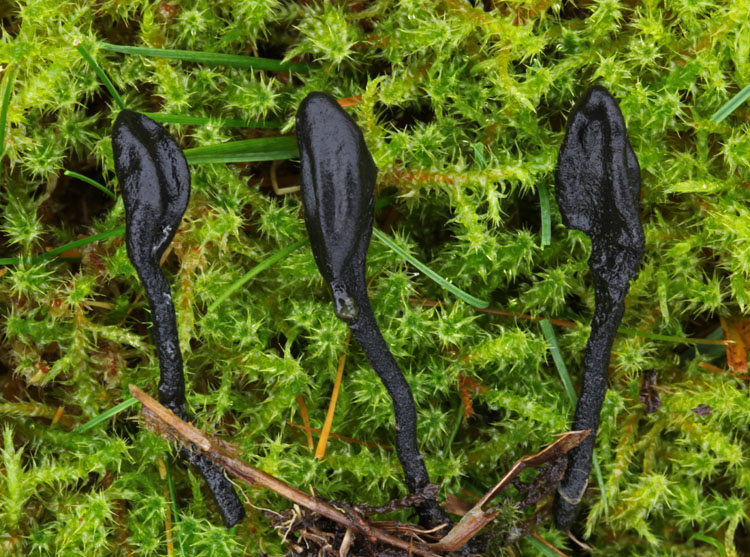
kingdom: Fungi
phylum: Ascomycota
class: Geoglossomycetes
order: Geoglossales
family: Geoglossaceae
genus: Trichoglossum
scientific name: Trichoglossum hirsutum
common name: håret jordtunge
